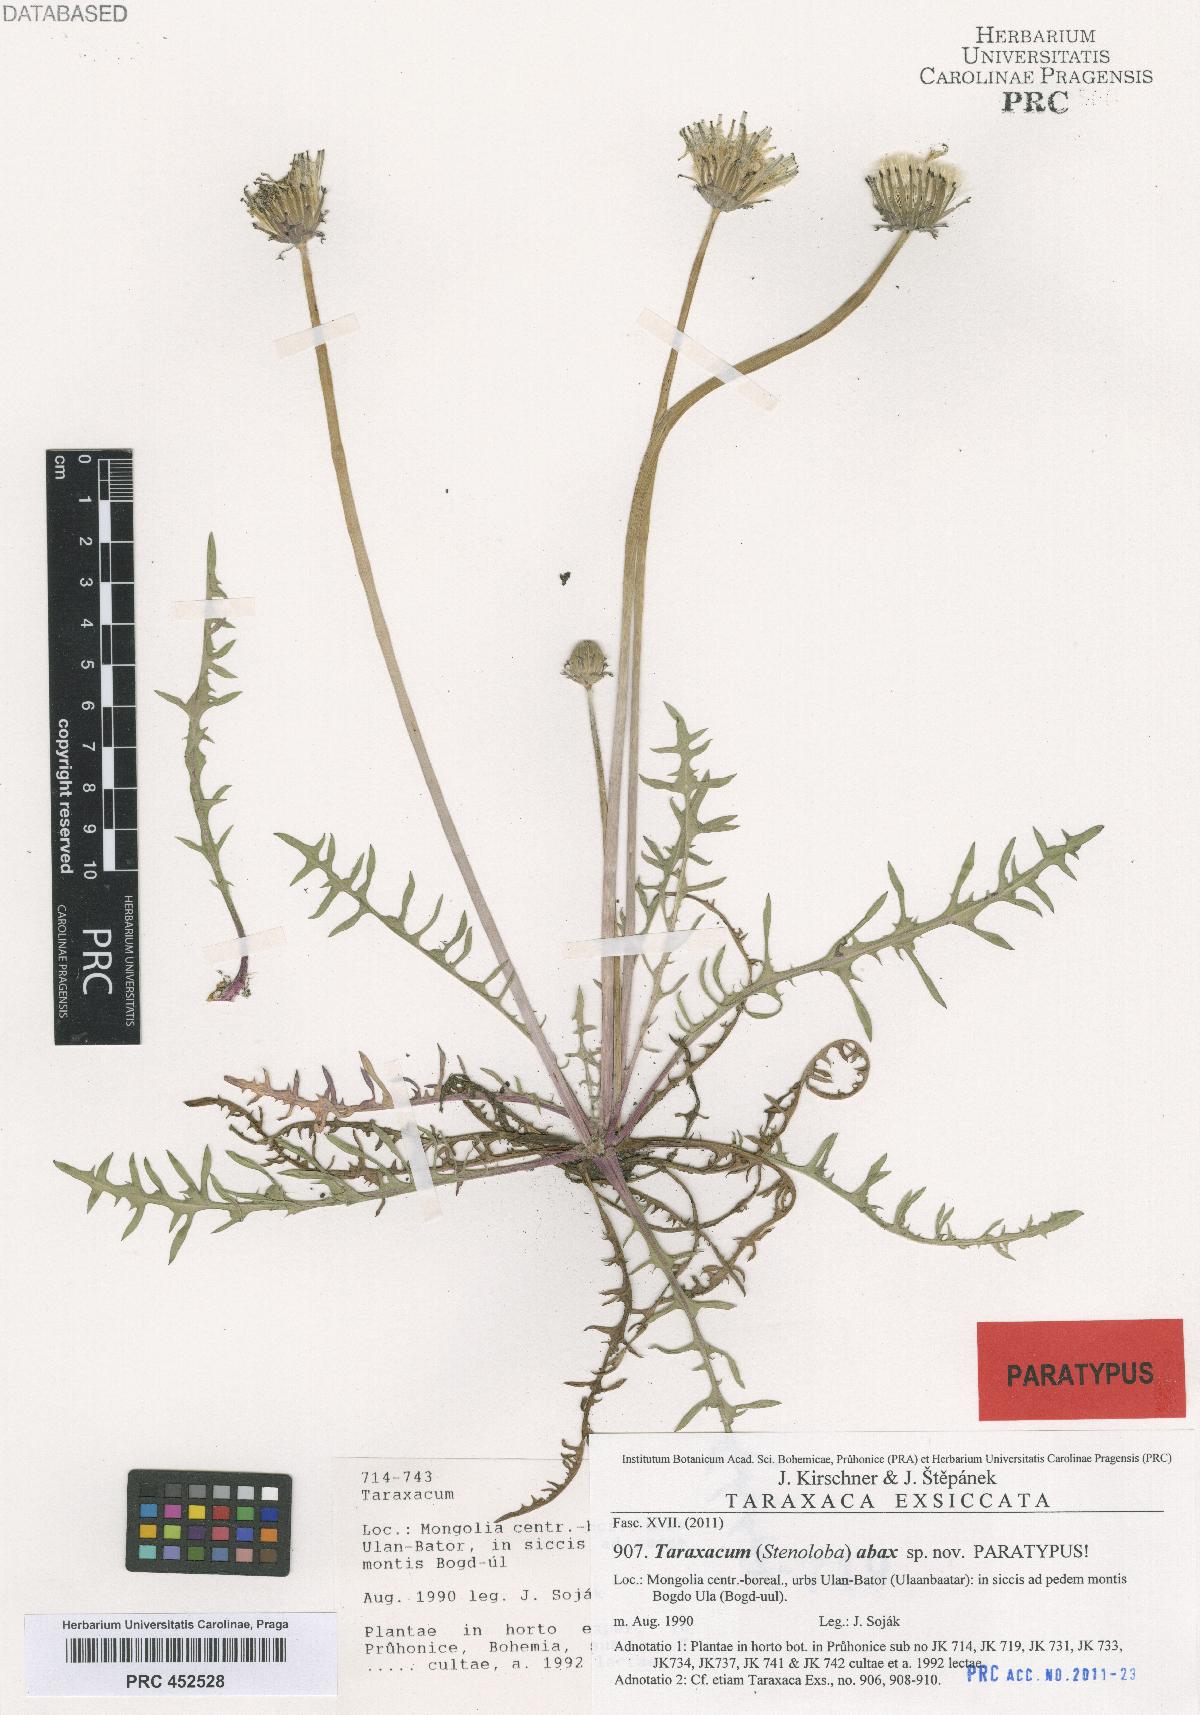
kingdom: Plantae
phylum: Tracheophyta
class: Magnoliopsida
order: Asterales
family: Asteraceae
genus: Taraxacum
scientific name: Taraxacum abax
